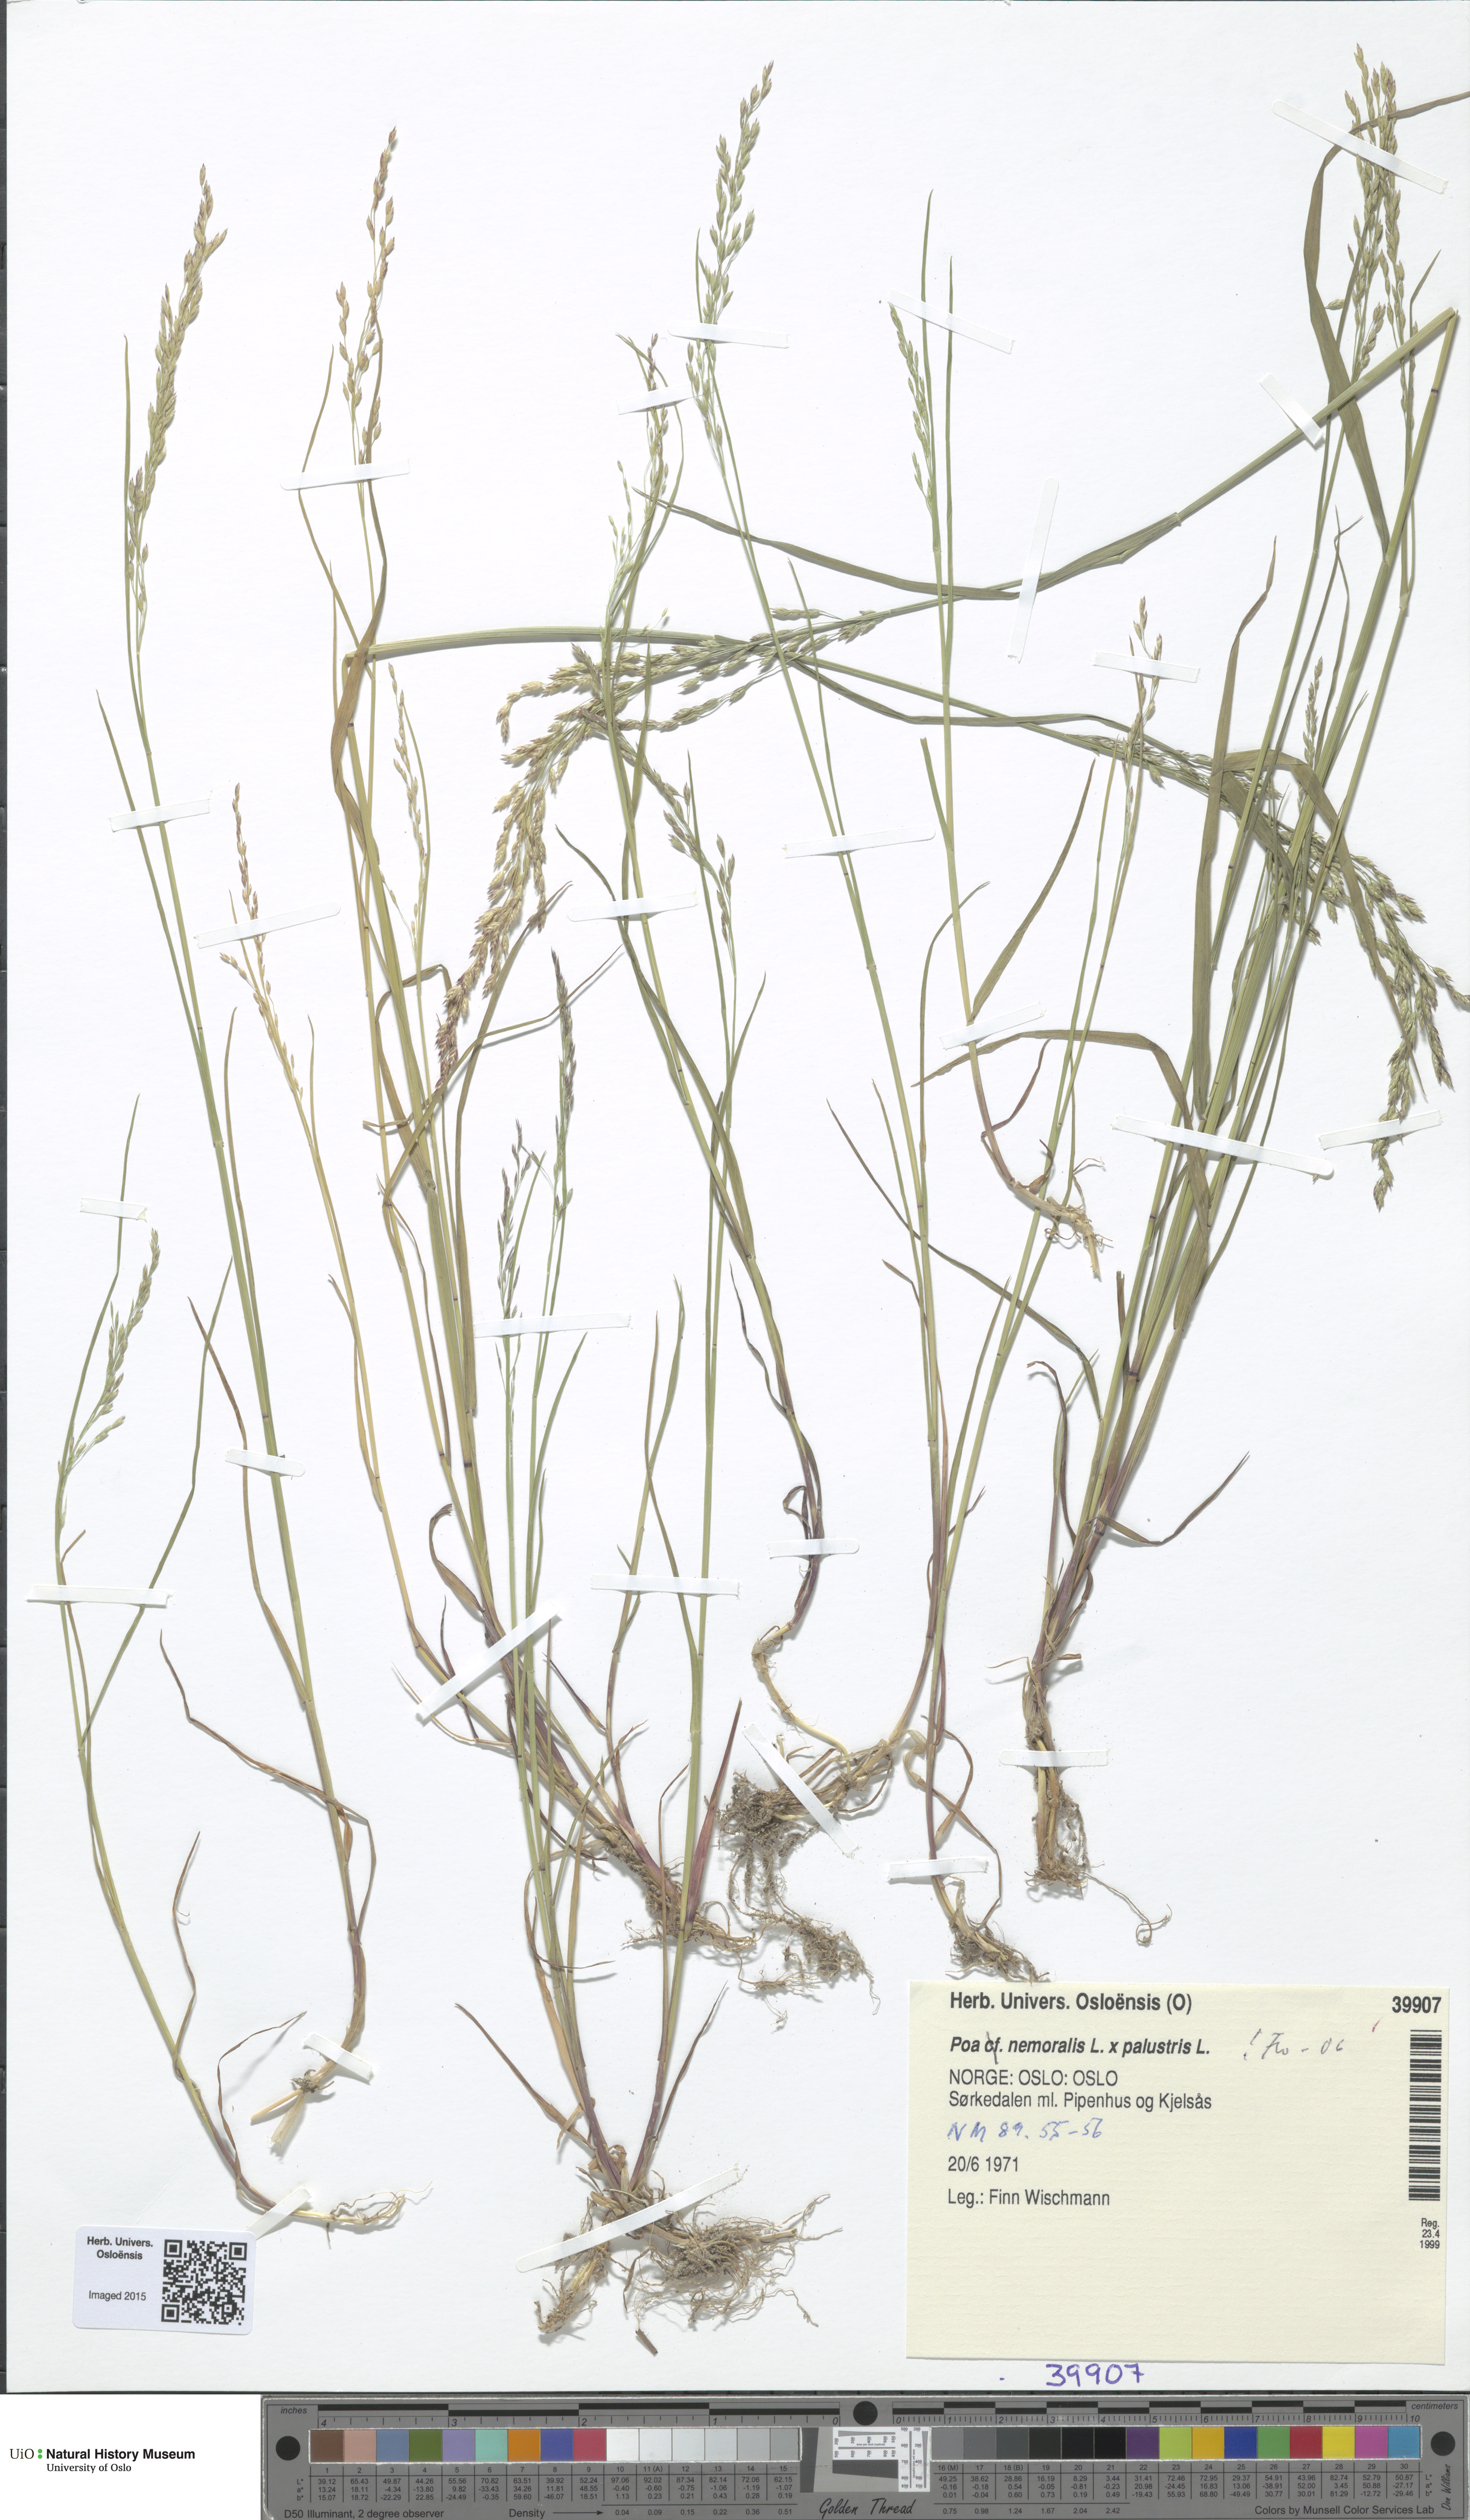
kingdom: Plantae
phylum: Tracheophyta
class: Liliopsida
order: Poales
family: Poaceae
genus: Poa
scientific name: Poa
